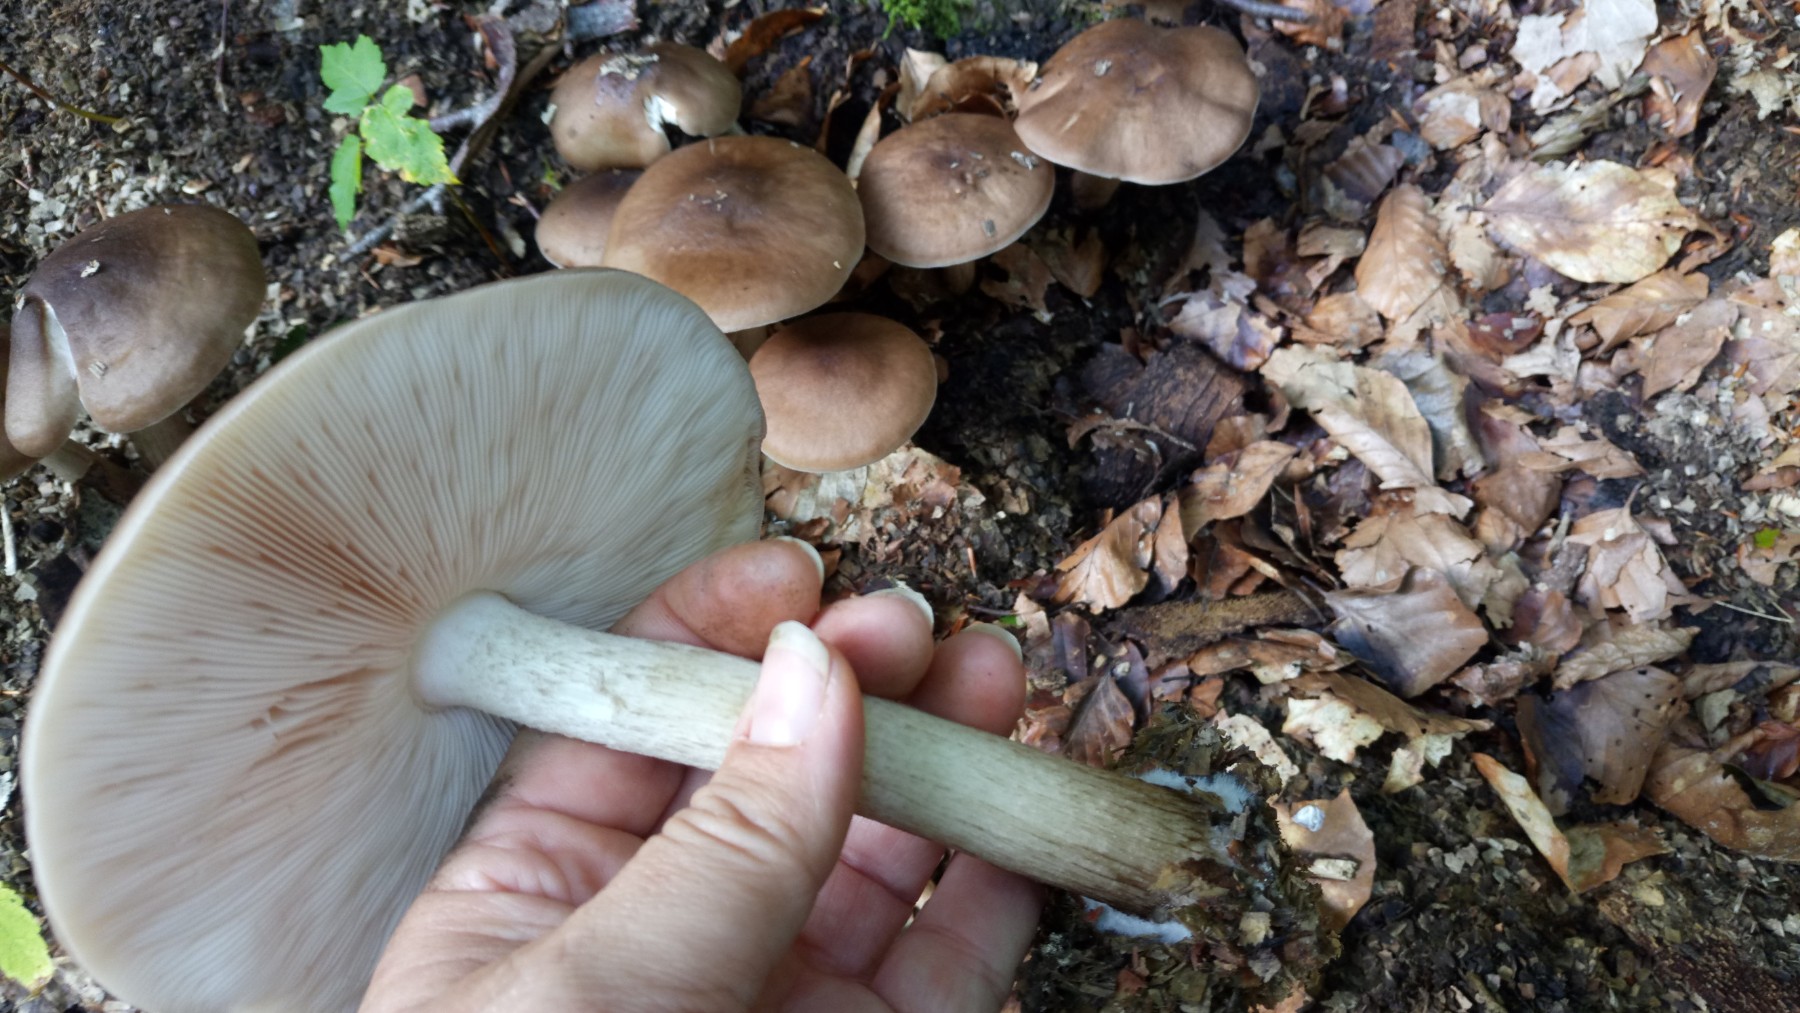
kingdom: Fungi
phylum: Basidiomycota
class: Agaricomycetes
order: Agaricales
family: Pluteaceae
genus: Pluteus
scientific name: Pluteus cervinus
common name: sodfarvet skærmhat
